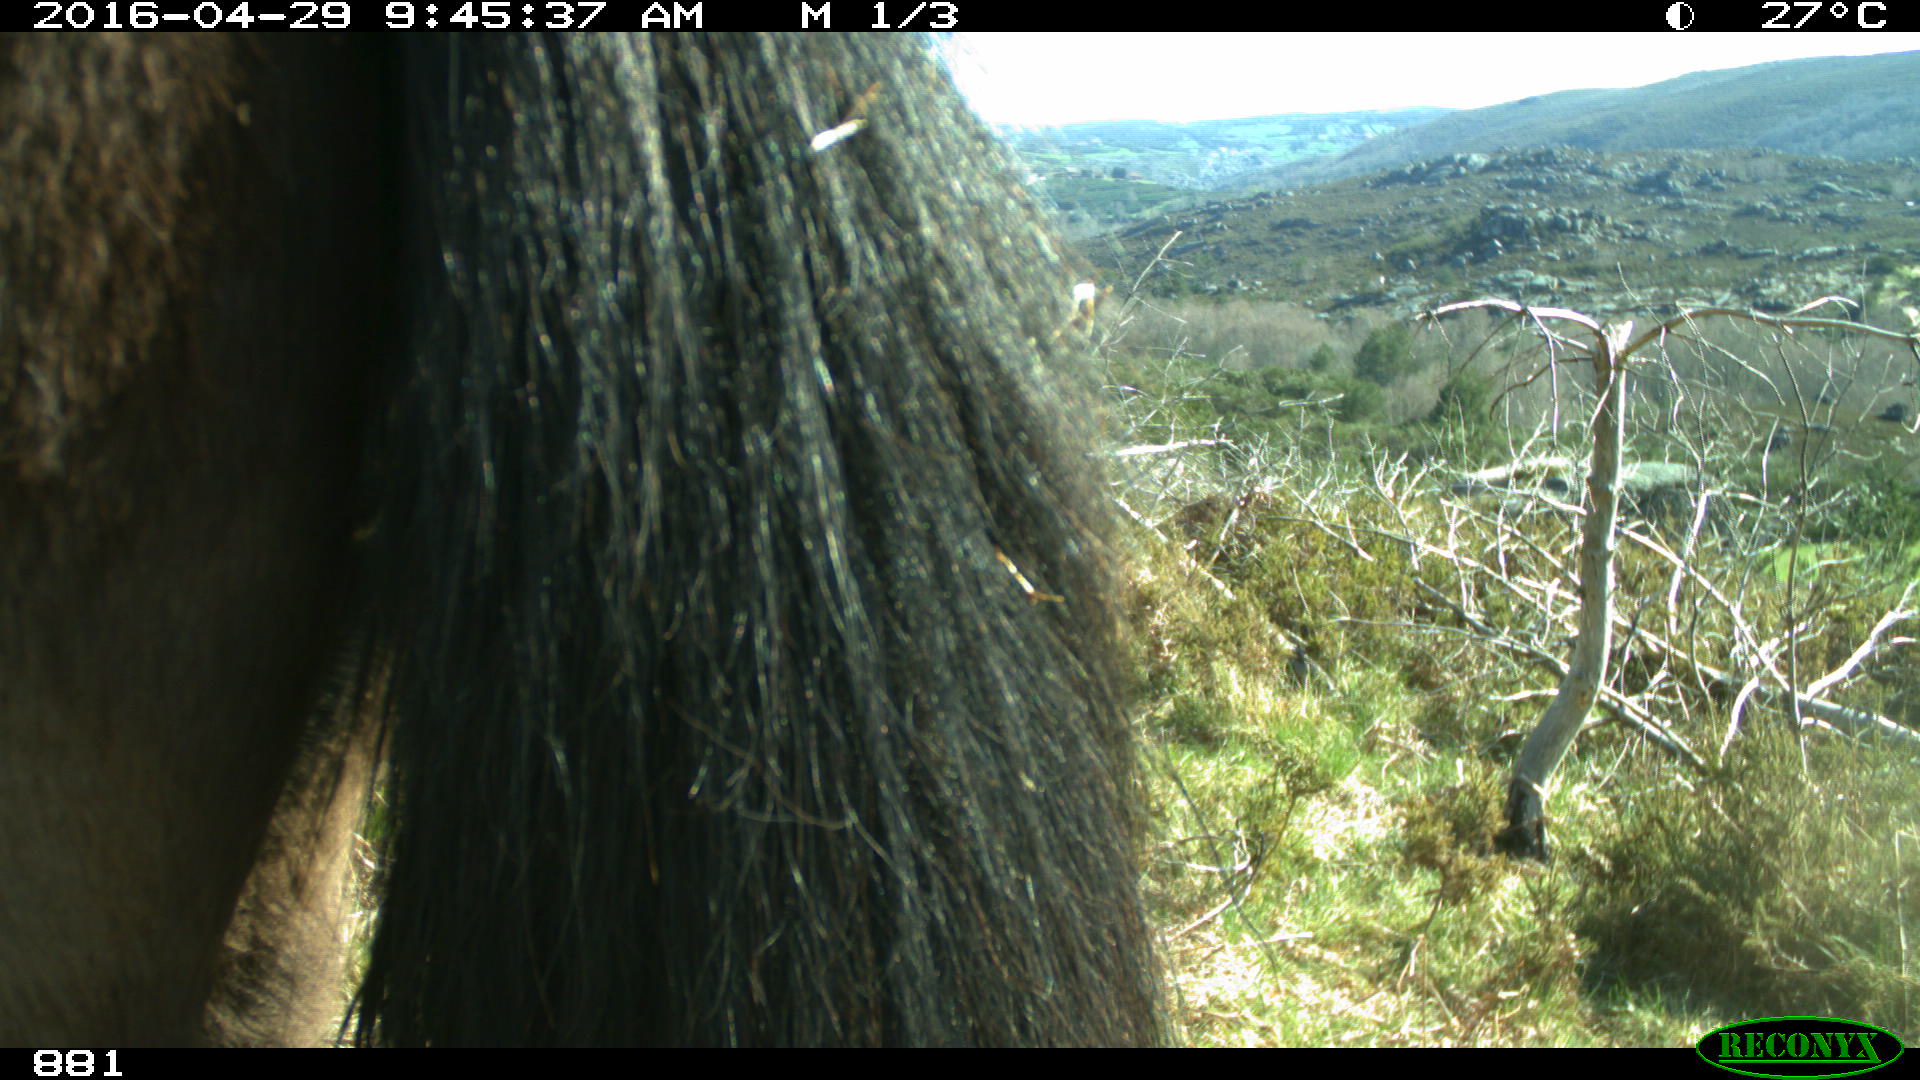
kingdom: Animalia
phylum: Chordata
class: Mammalia
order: Perissodactyla
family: Equidae
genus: Equus
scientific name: Equus caballus
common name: Horse
